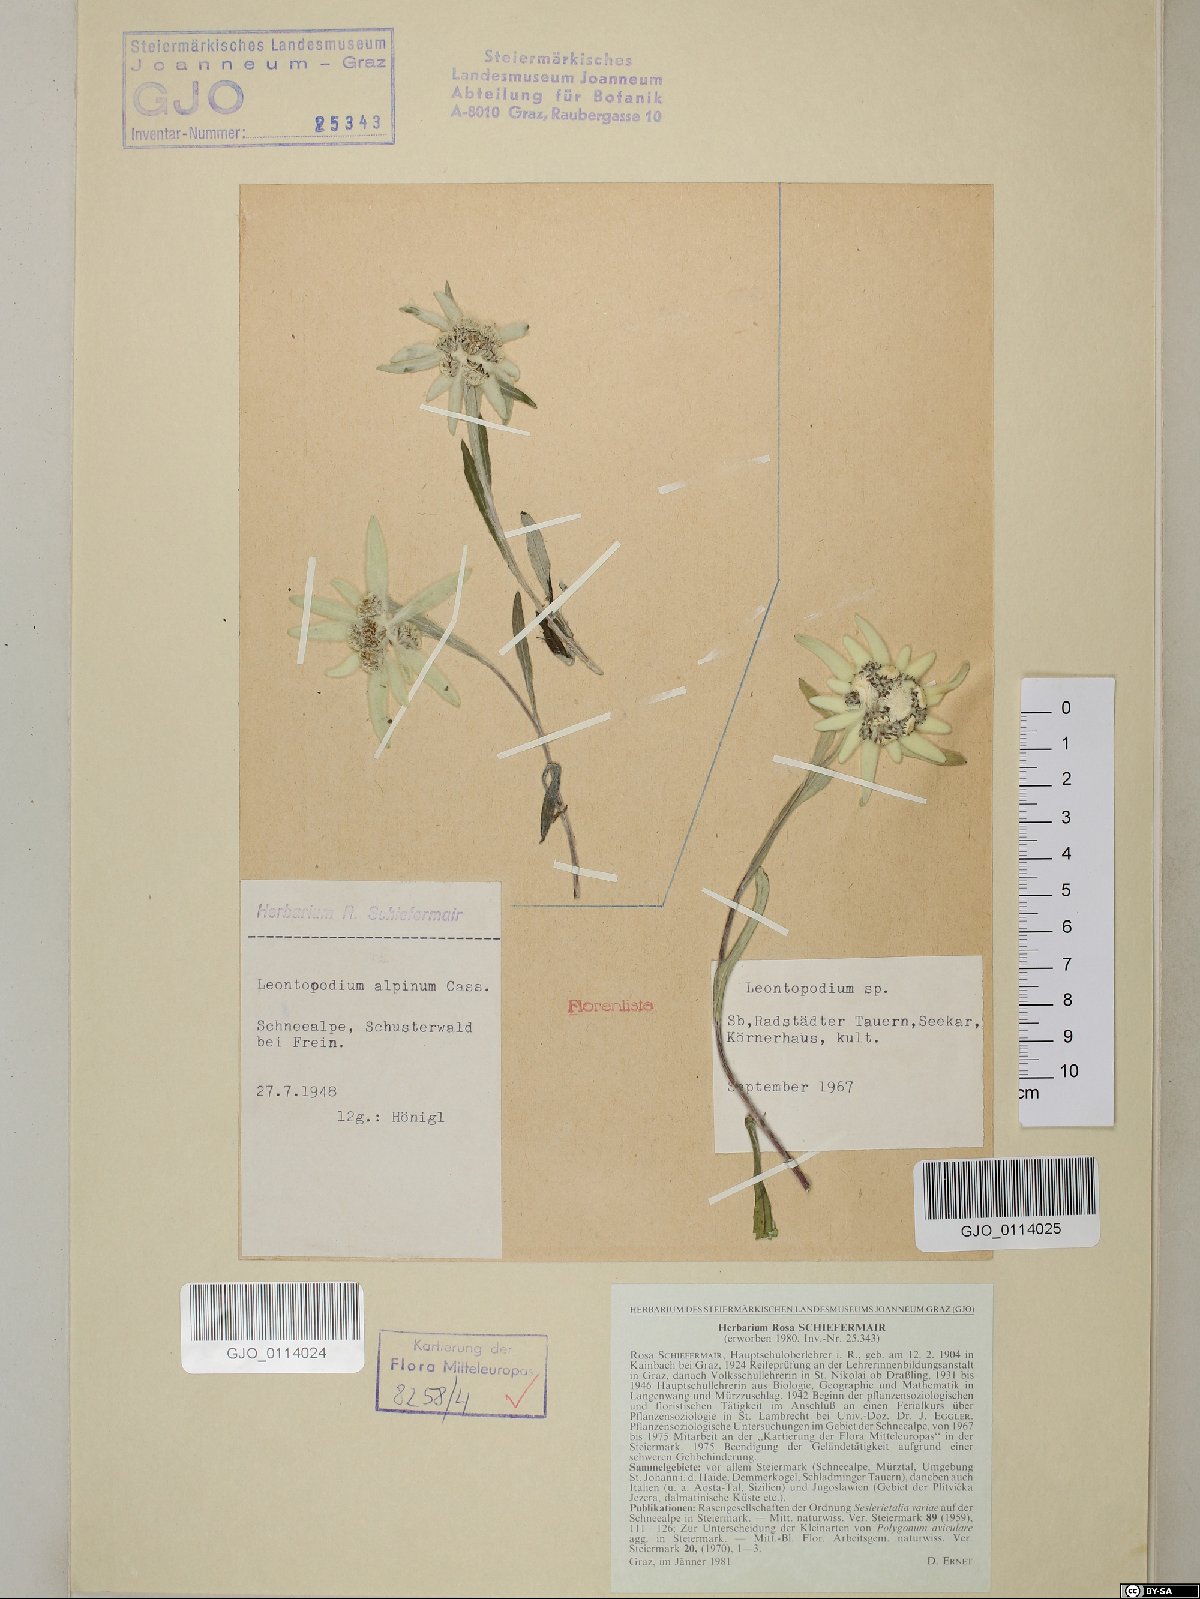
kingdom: Plantae
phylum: Tracheophyta
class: Magnoliopsida
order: Asterales
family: Asteraceae
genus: Leontopodium
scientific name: Leontopodium nivale
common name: Edelweiss
